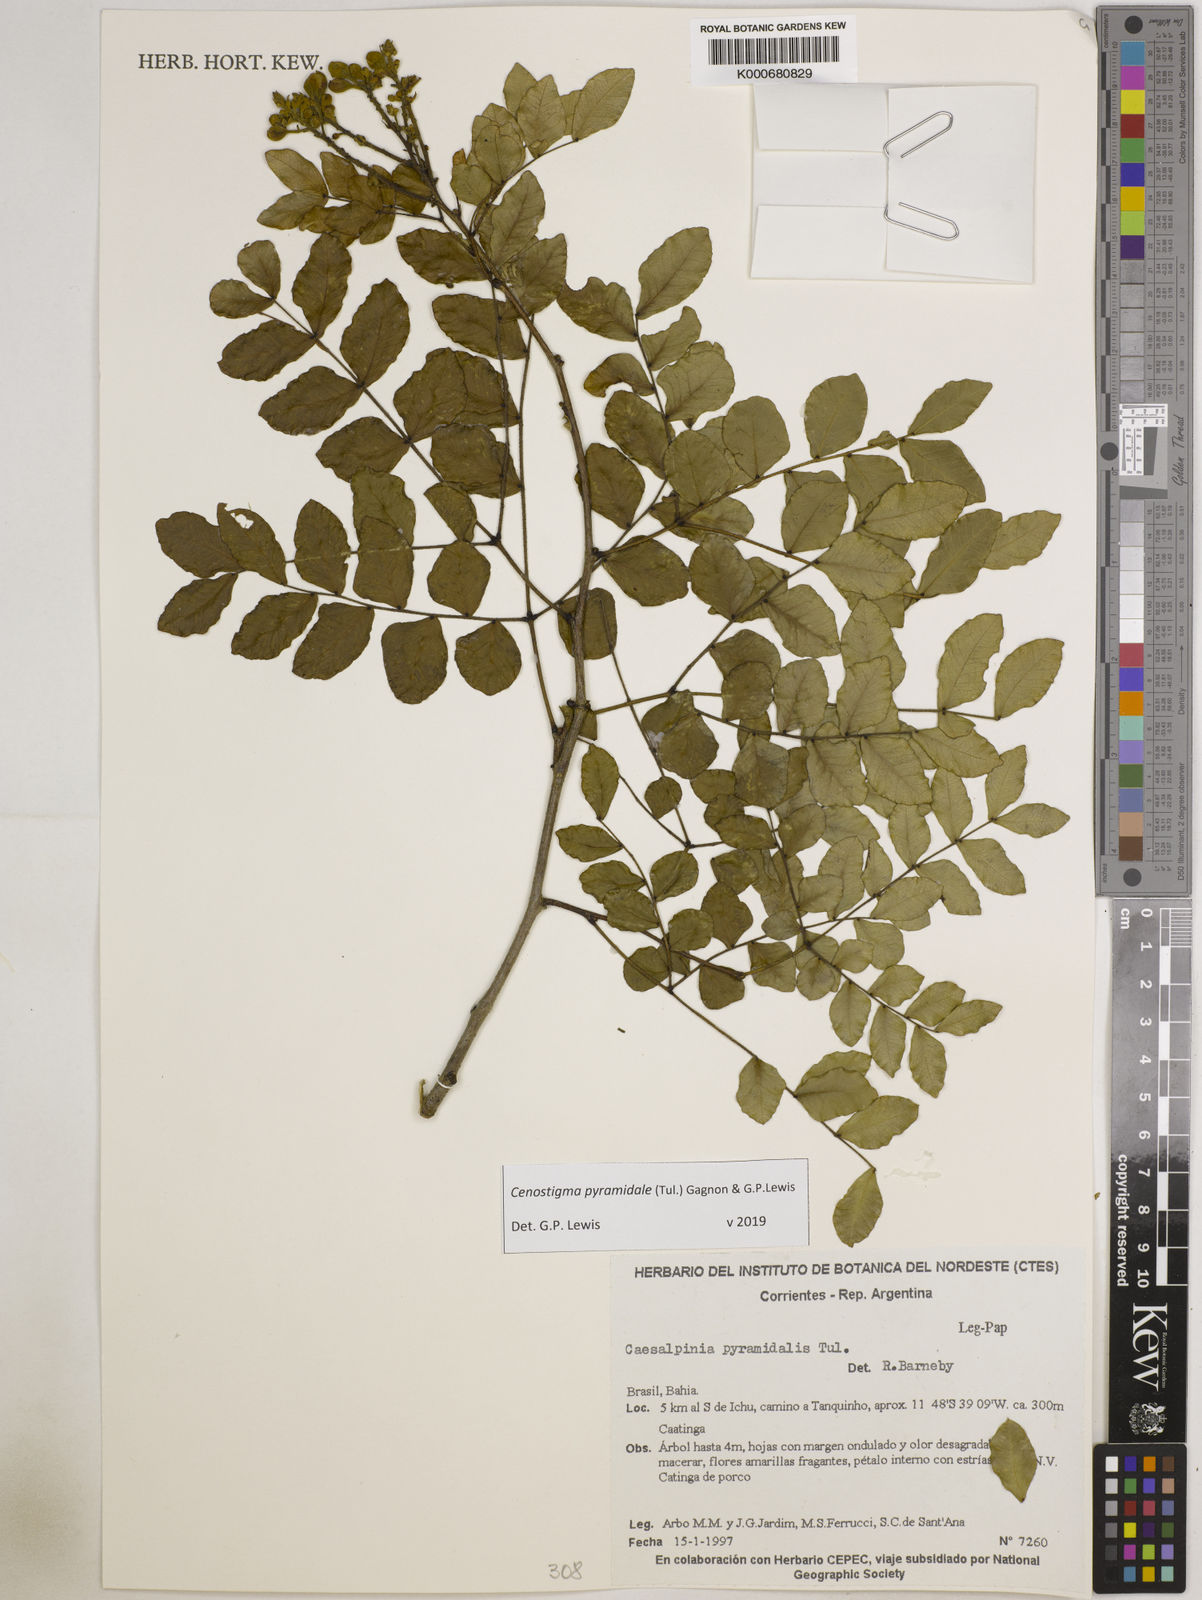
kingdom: Plantae
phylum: Tracheophyta
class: Magnoliopsida
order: Fabales
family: Fabaceae
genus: Caesalpinia
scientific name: Caesalpinia
